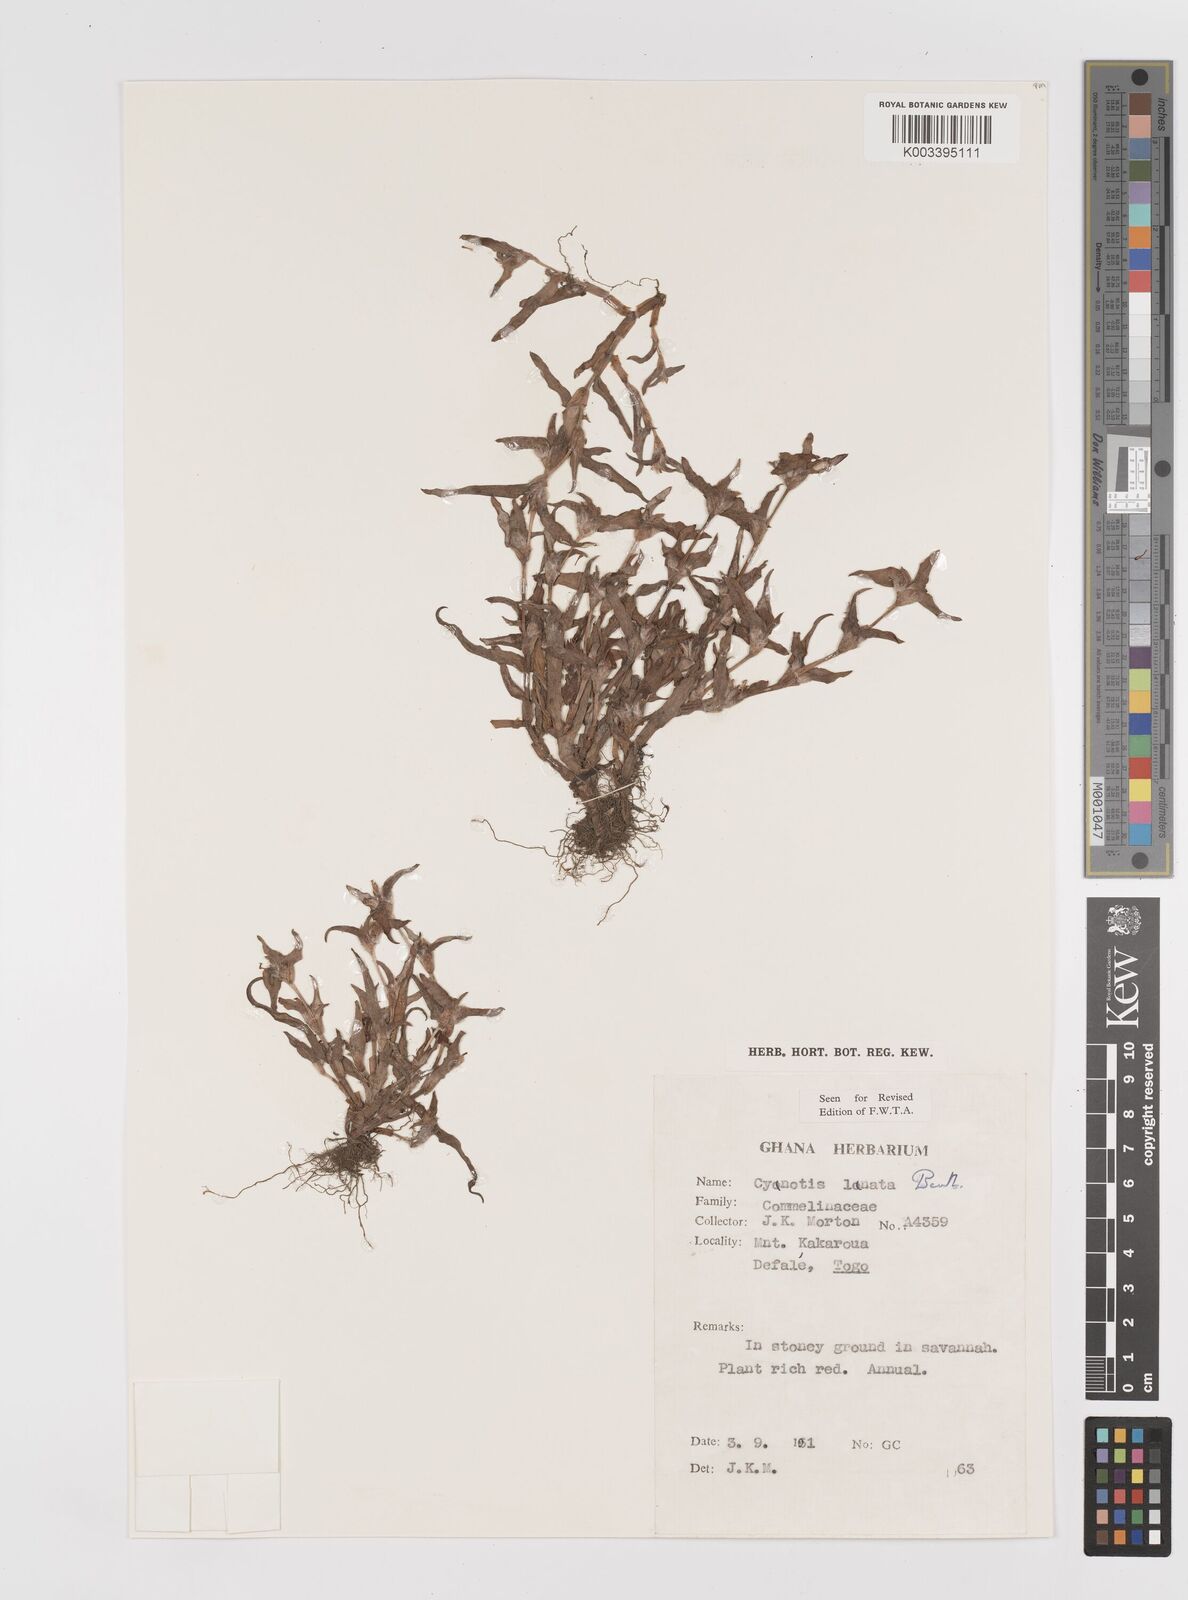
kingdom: Plantae
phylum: Tracheophyta
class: Liliopsida
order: Commelinales
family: Commelinaceae
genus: Cyanotis
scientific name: Cyanotis lanata
